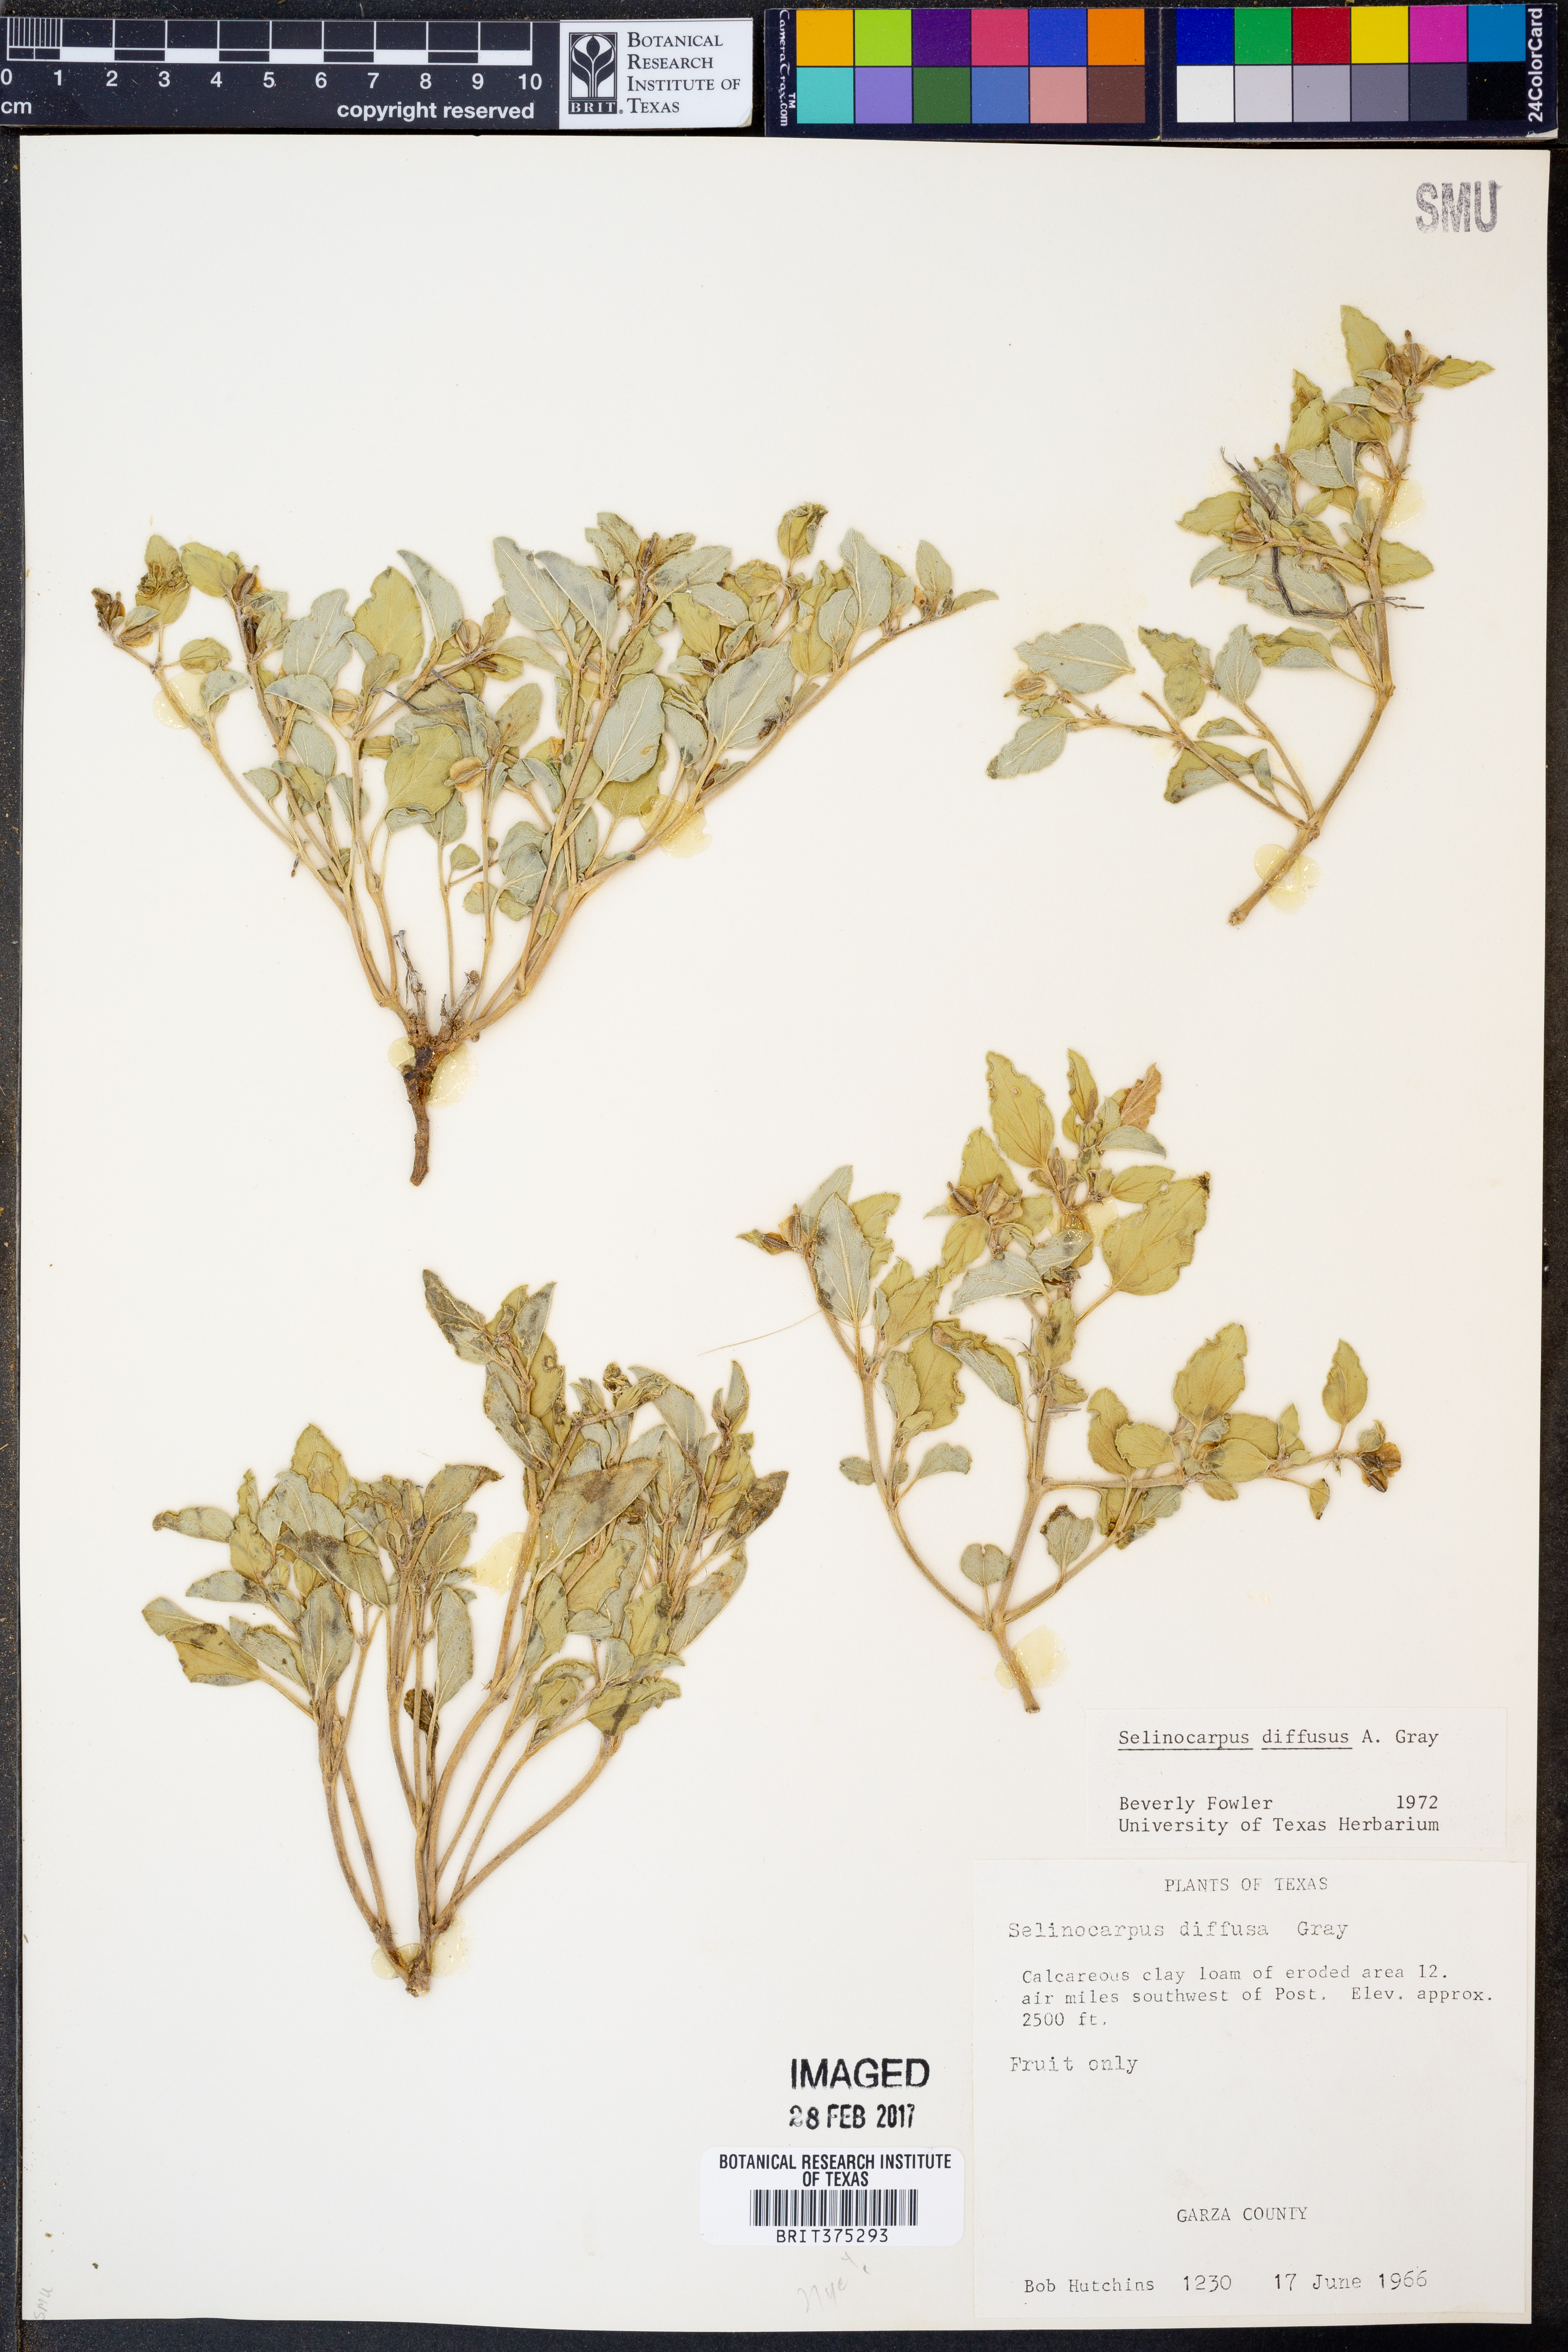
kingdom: Plantae
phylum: Tracheophyta
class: Magnoliopsida
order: Caryophyllales
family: Nyctaginaceae
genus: Acleisanthes
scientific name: Acleisanthes diffusa
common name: Spreading moonpod
